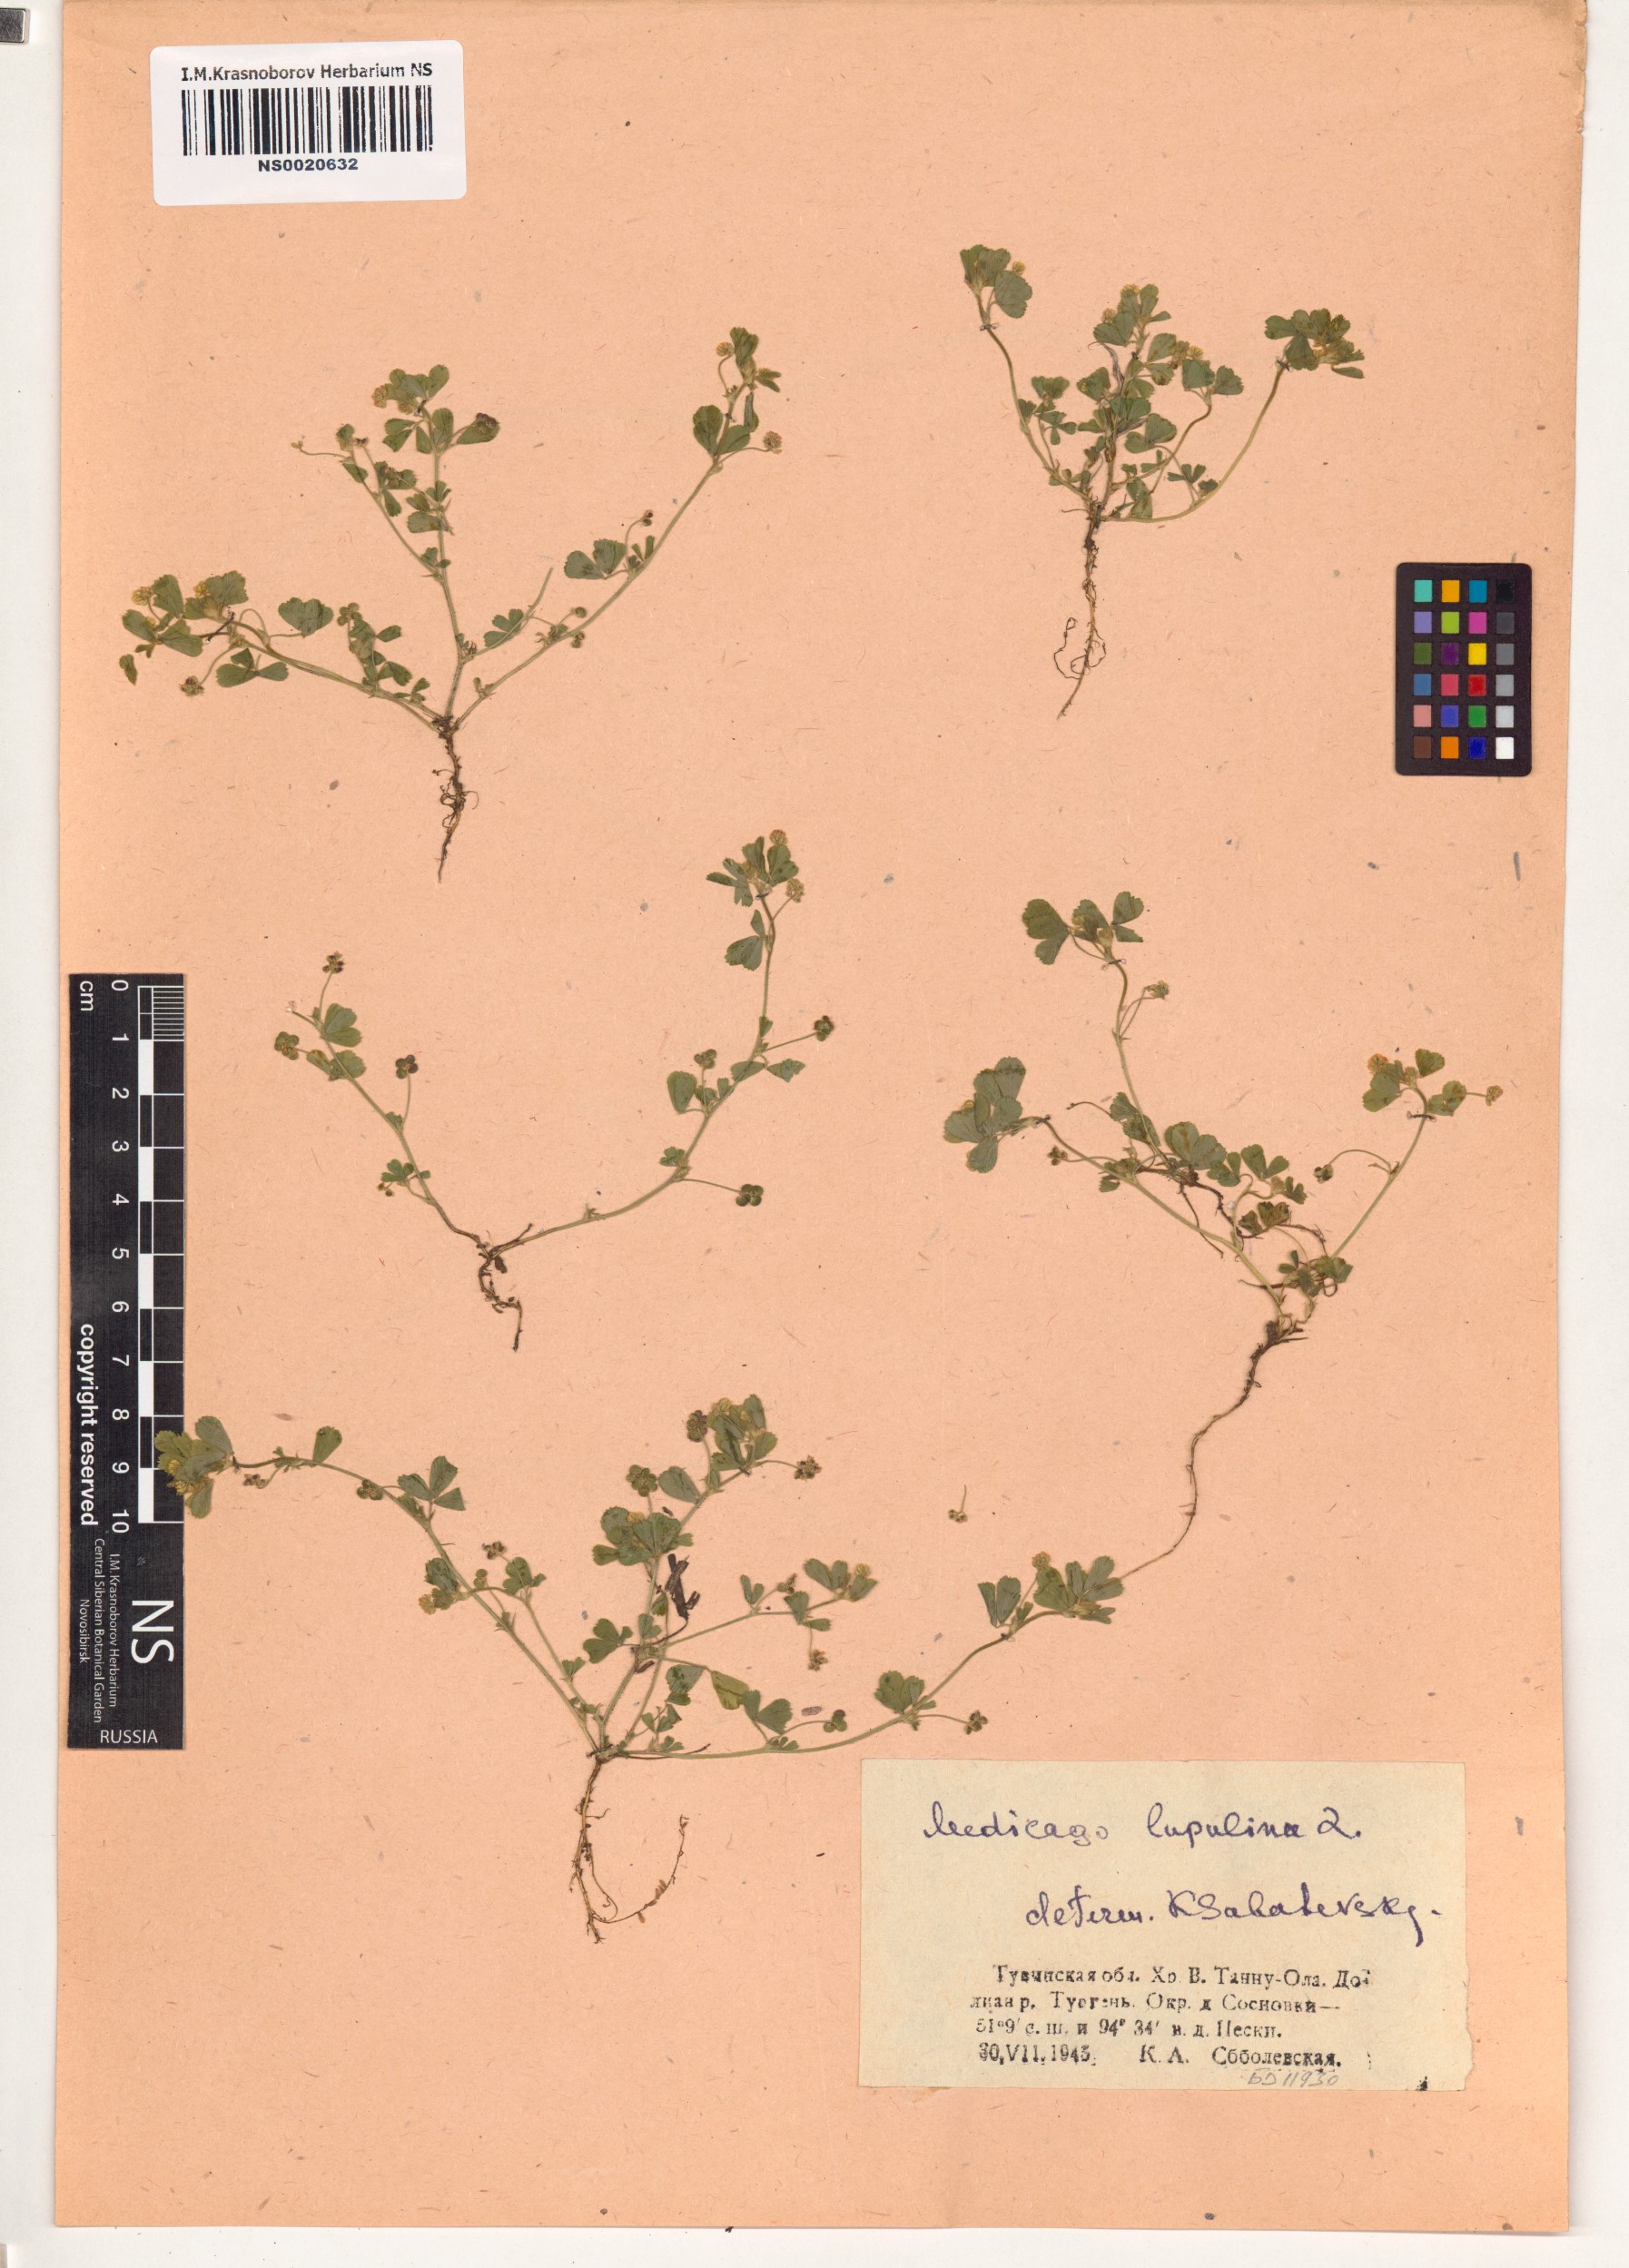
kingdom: Plantae
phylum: Tracheophyta
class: Magnoliopsida
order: Fabales
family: Fabaceae
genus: Medicago
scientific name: Medicago lupulina
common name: Black medick
